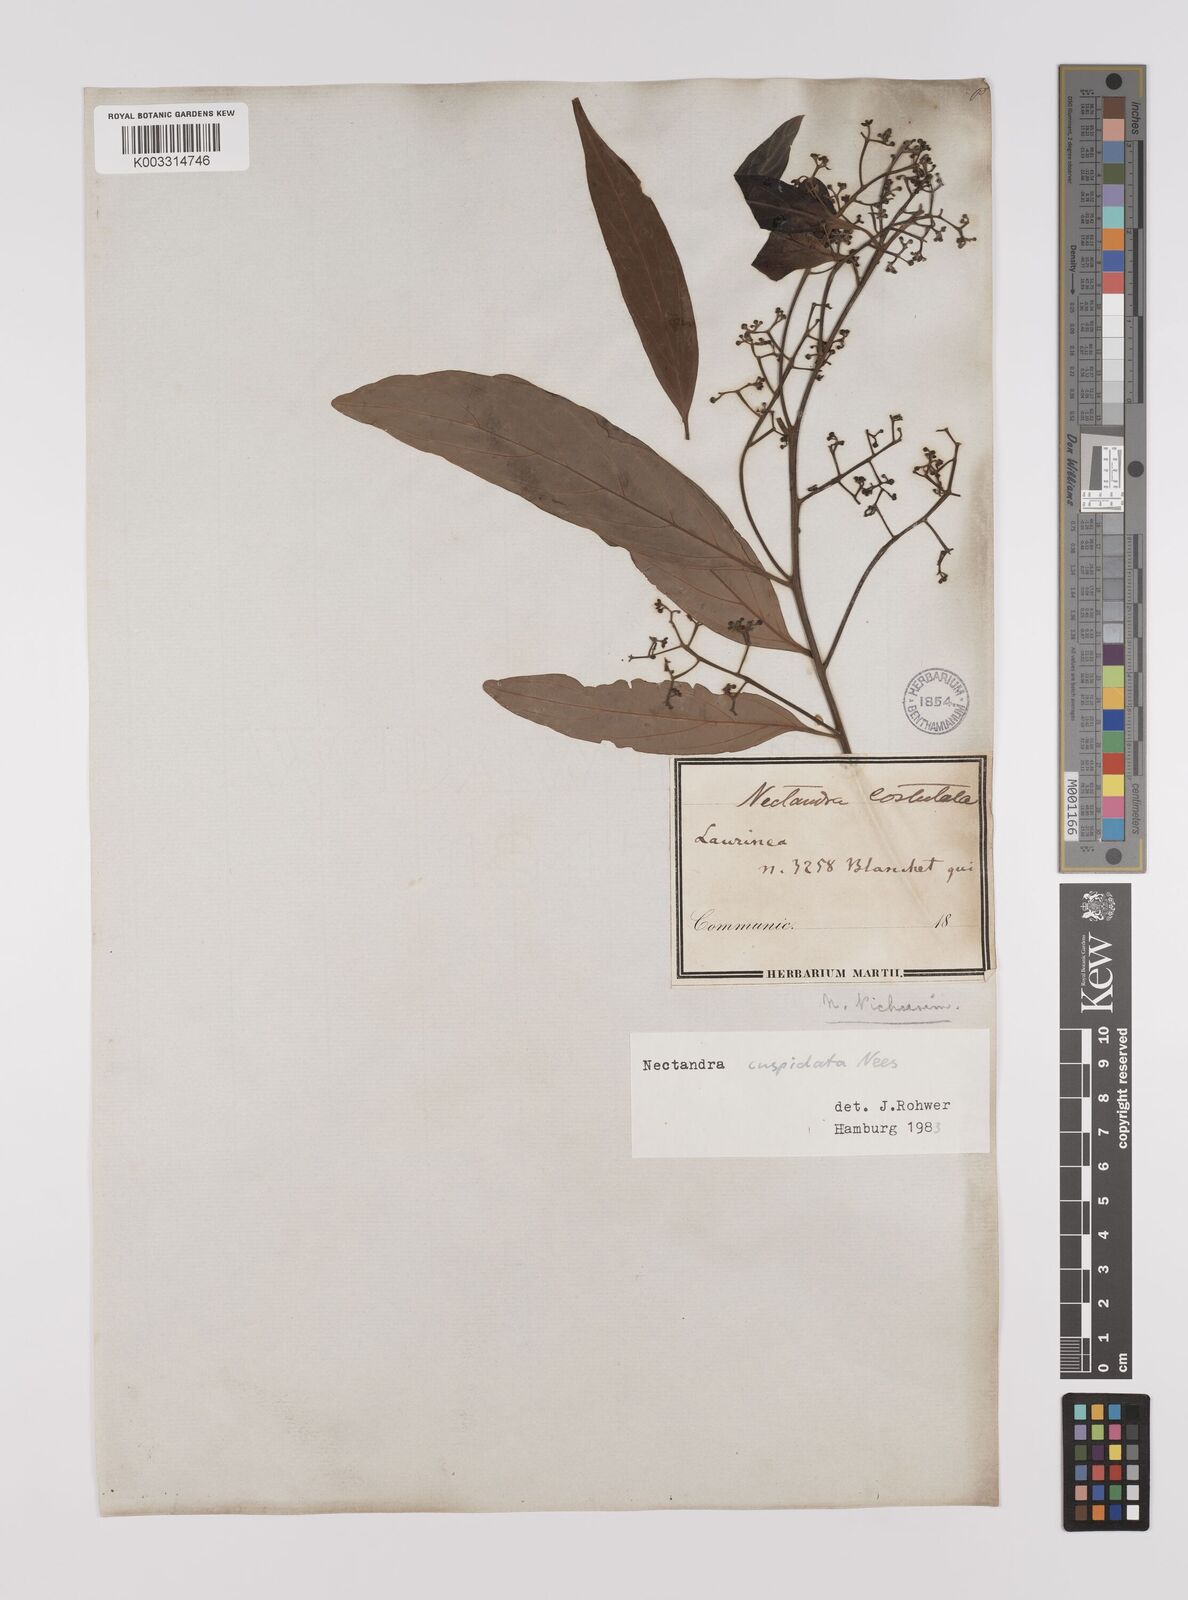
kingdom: Plantae
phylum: Tracheophyta
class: Magnoliopsida
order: Laurales
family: Lauraceae
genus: Nectandra
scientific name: Nectandra cuspidata
